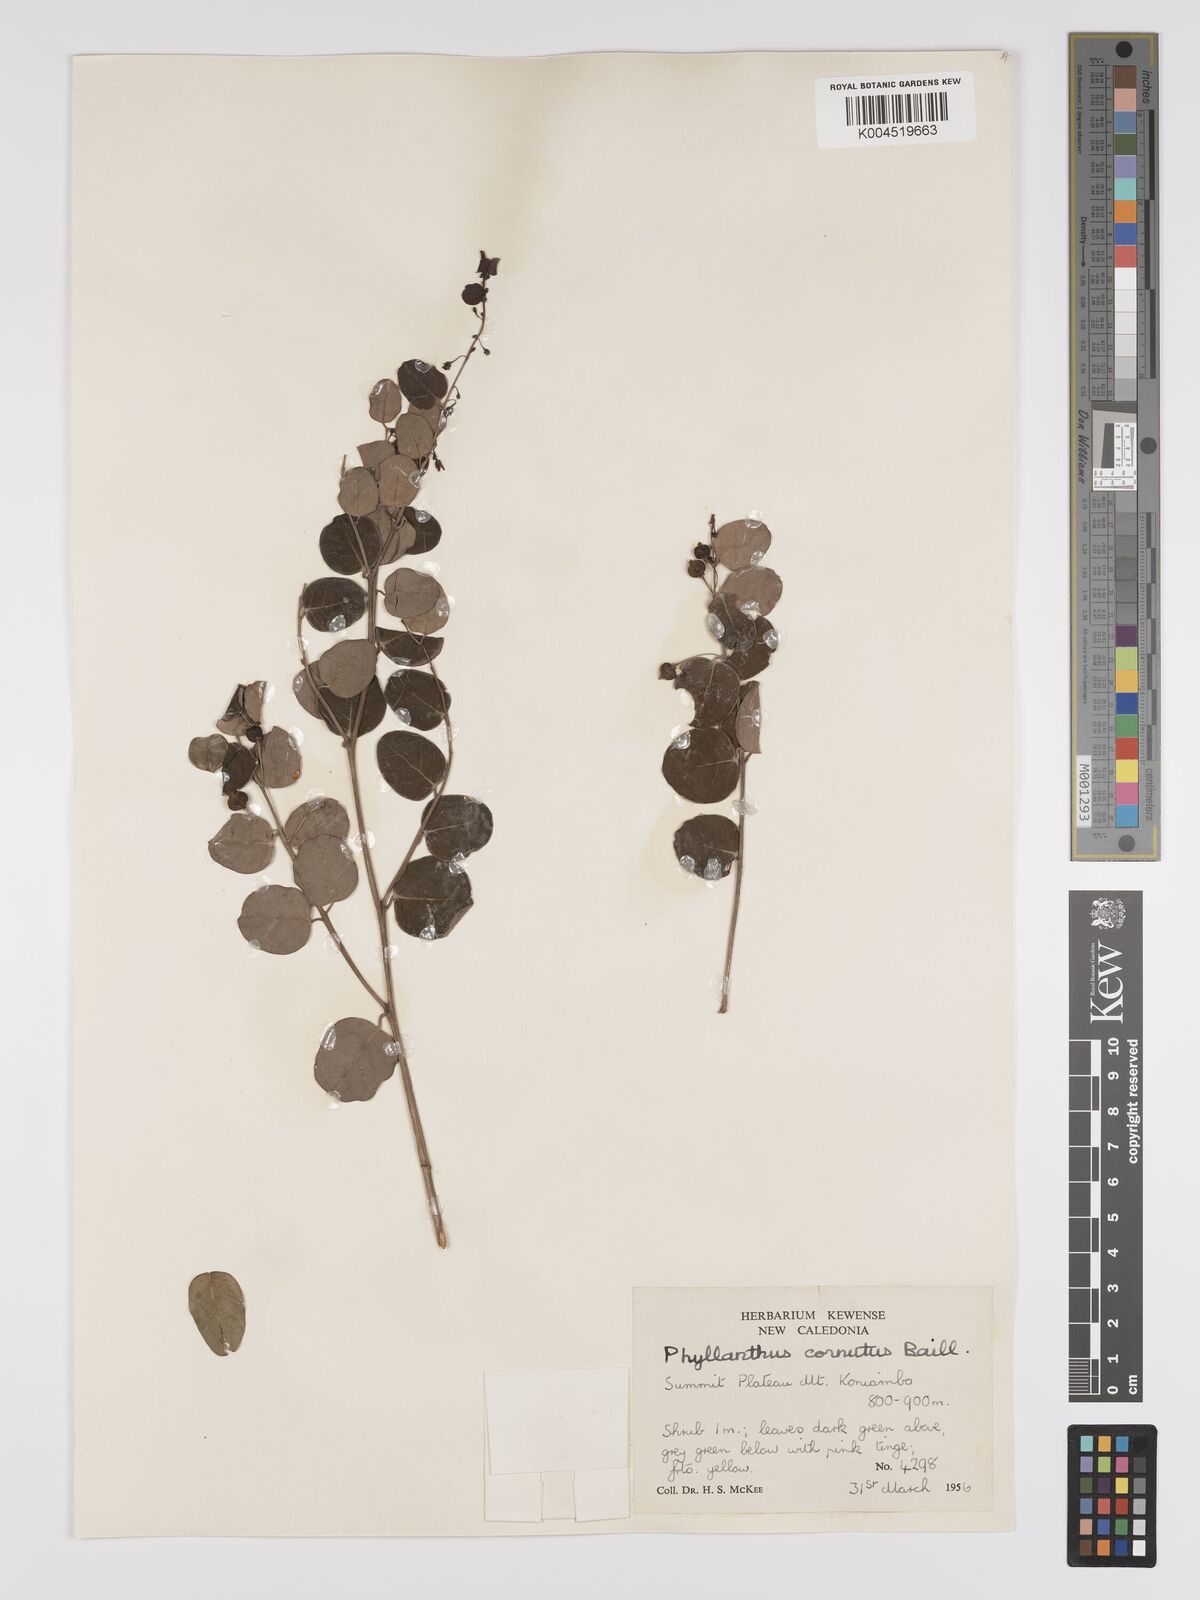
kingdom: Plantae
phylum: Tracheophyta
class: Magnoliopsida
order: Malpighiales
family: Phyllanthaceae
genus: Phyllanthus
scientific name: Phyllanthus cornutus
